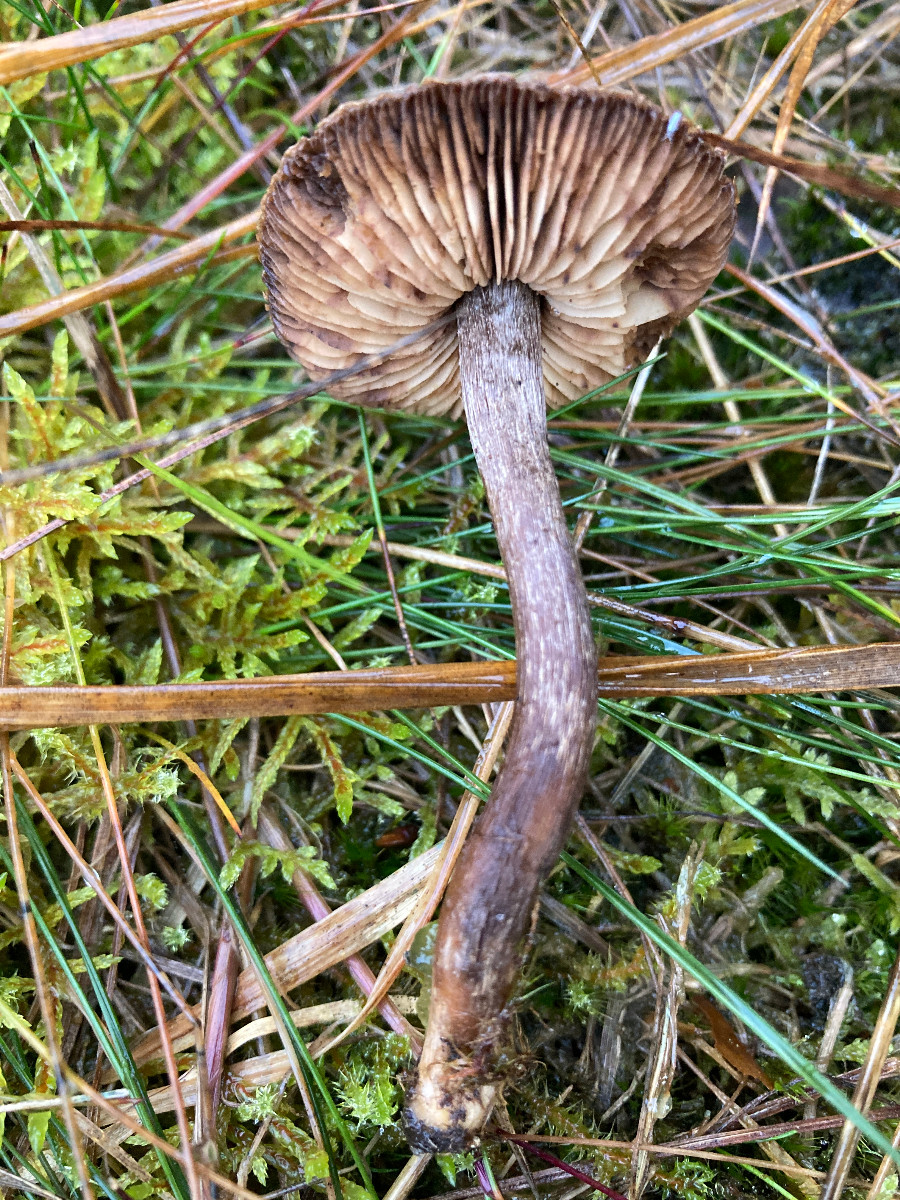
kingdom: Fungi
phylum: Basidiomycota
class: Agaricomycetes
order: Agaricales
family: Inocybaceae
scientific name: Inocybaceae
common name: trævlhatfamilien
